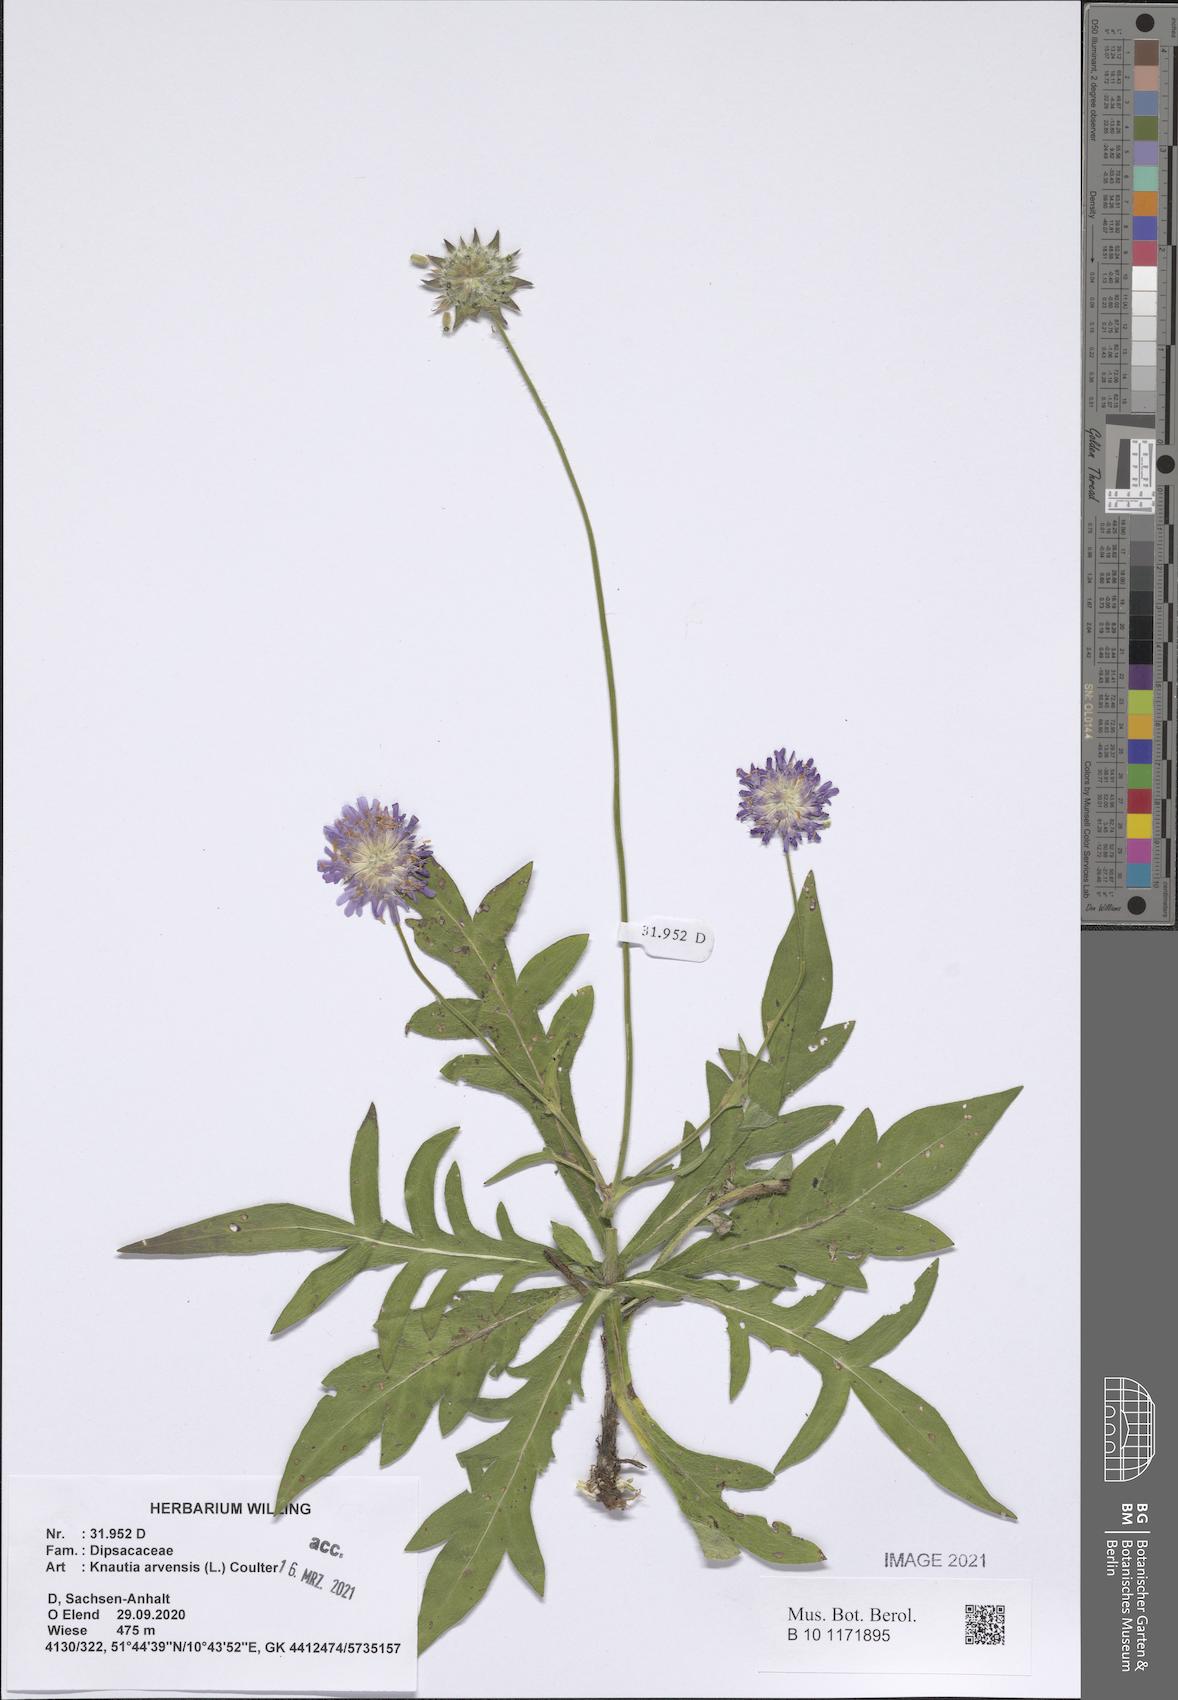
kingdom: Plantae
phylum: Tracheophyta
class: Magnoliopsida
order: Dipsacales
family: Caprifoliaceae
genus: Knautia
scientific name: Knautia arvensis
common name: Field scabiosa
